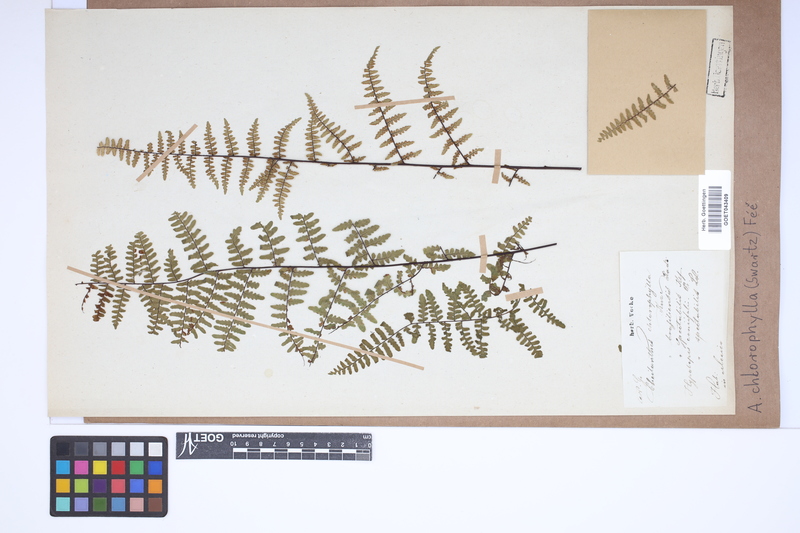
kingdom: Plantae
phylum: Tracheophyta
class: Polypodiopsida
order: Polypodiales
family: Pteridaceae
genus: Adiantopsis
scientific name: Adiantopsis chlorophylla
